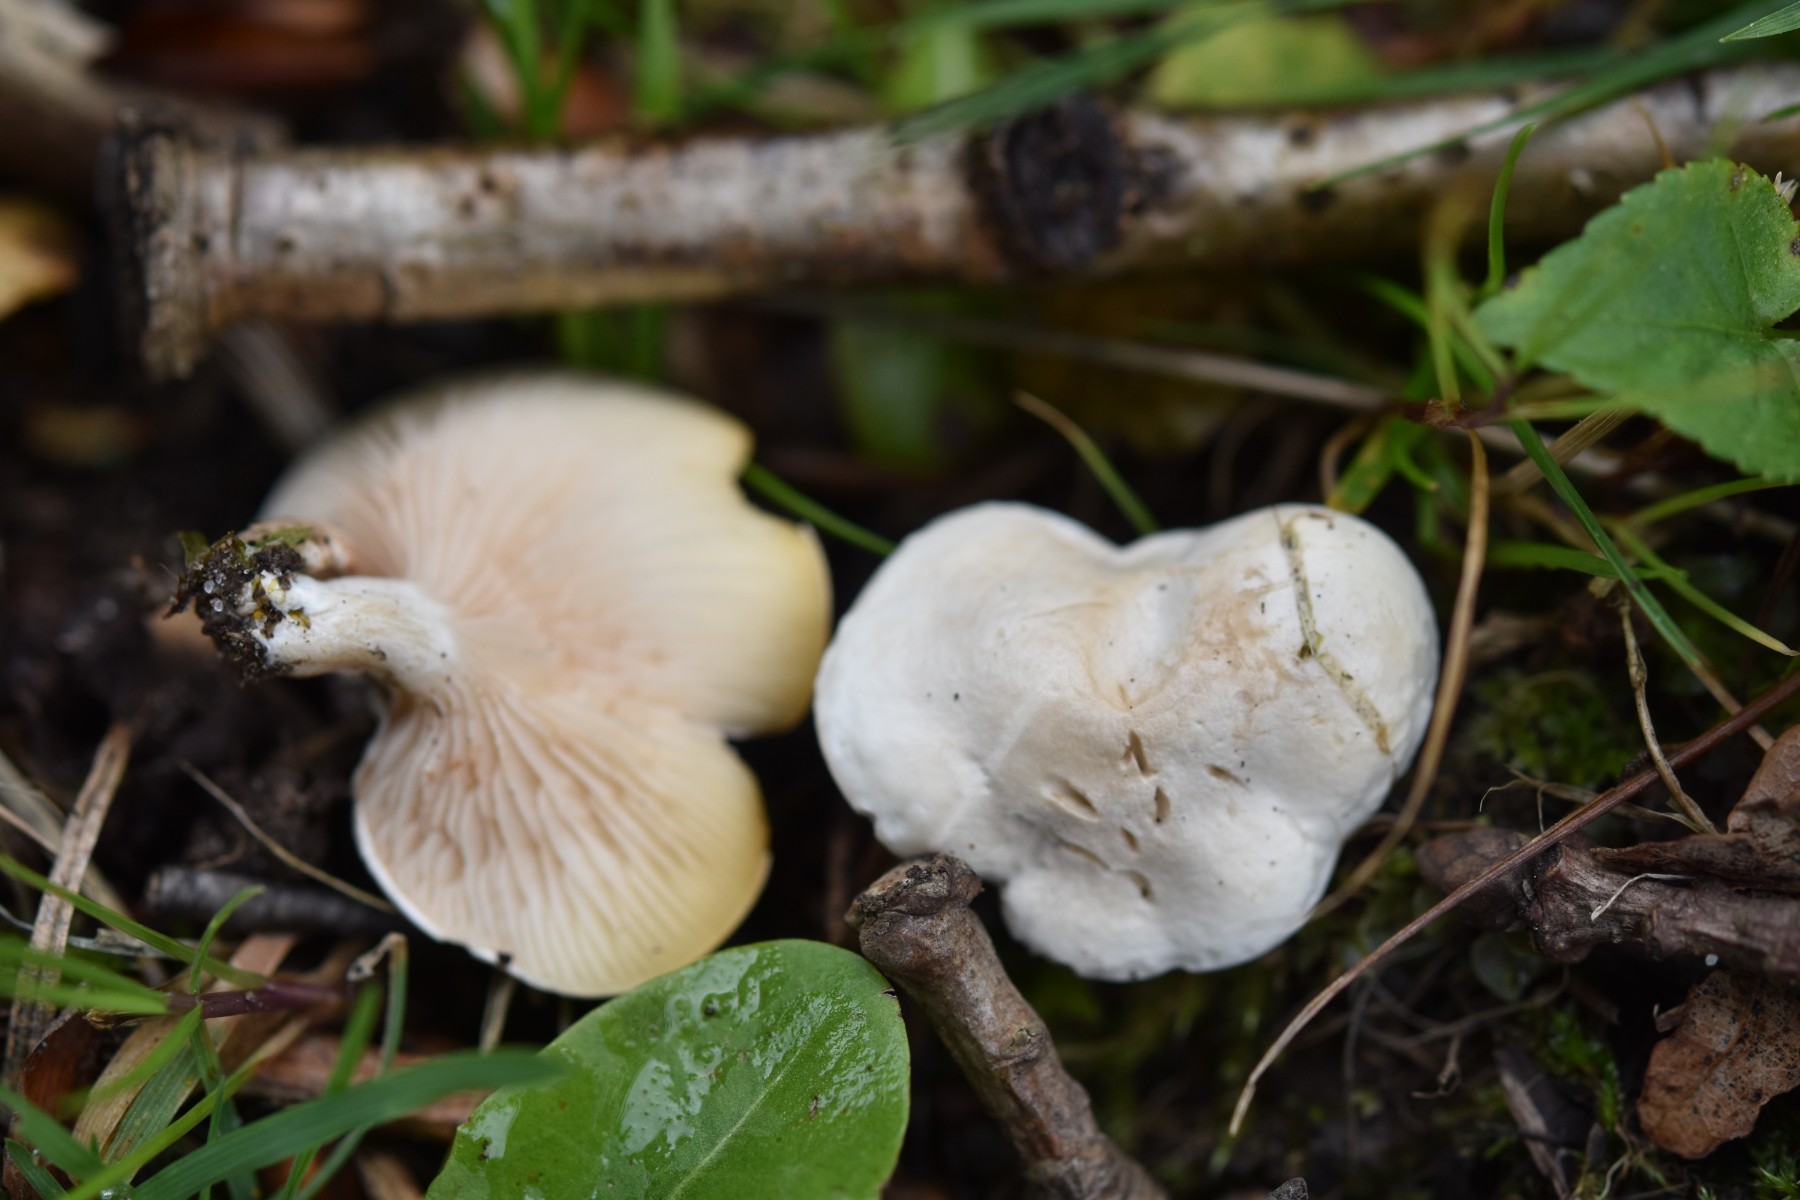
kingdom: Fungi
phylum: Basidiomycota
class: Agaricomycetes
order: Agaricales
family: Entolomataceae
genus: Clitopilus
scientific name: Clitopilus prunulus
